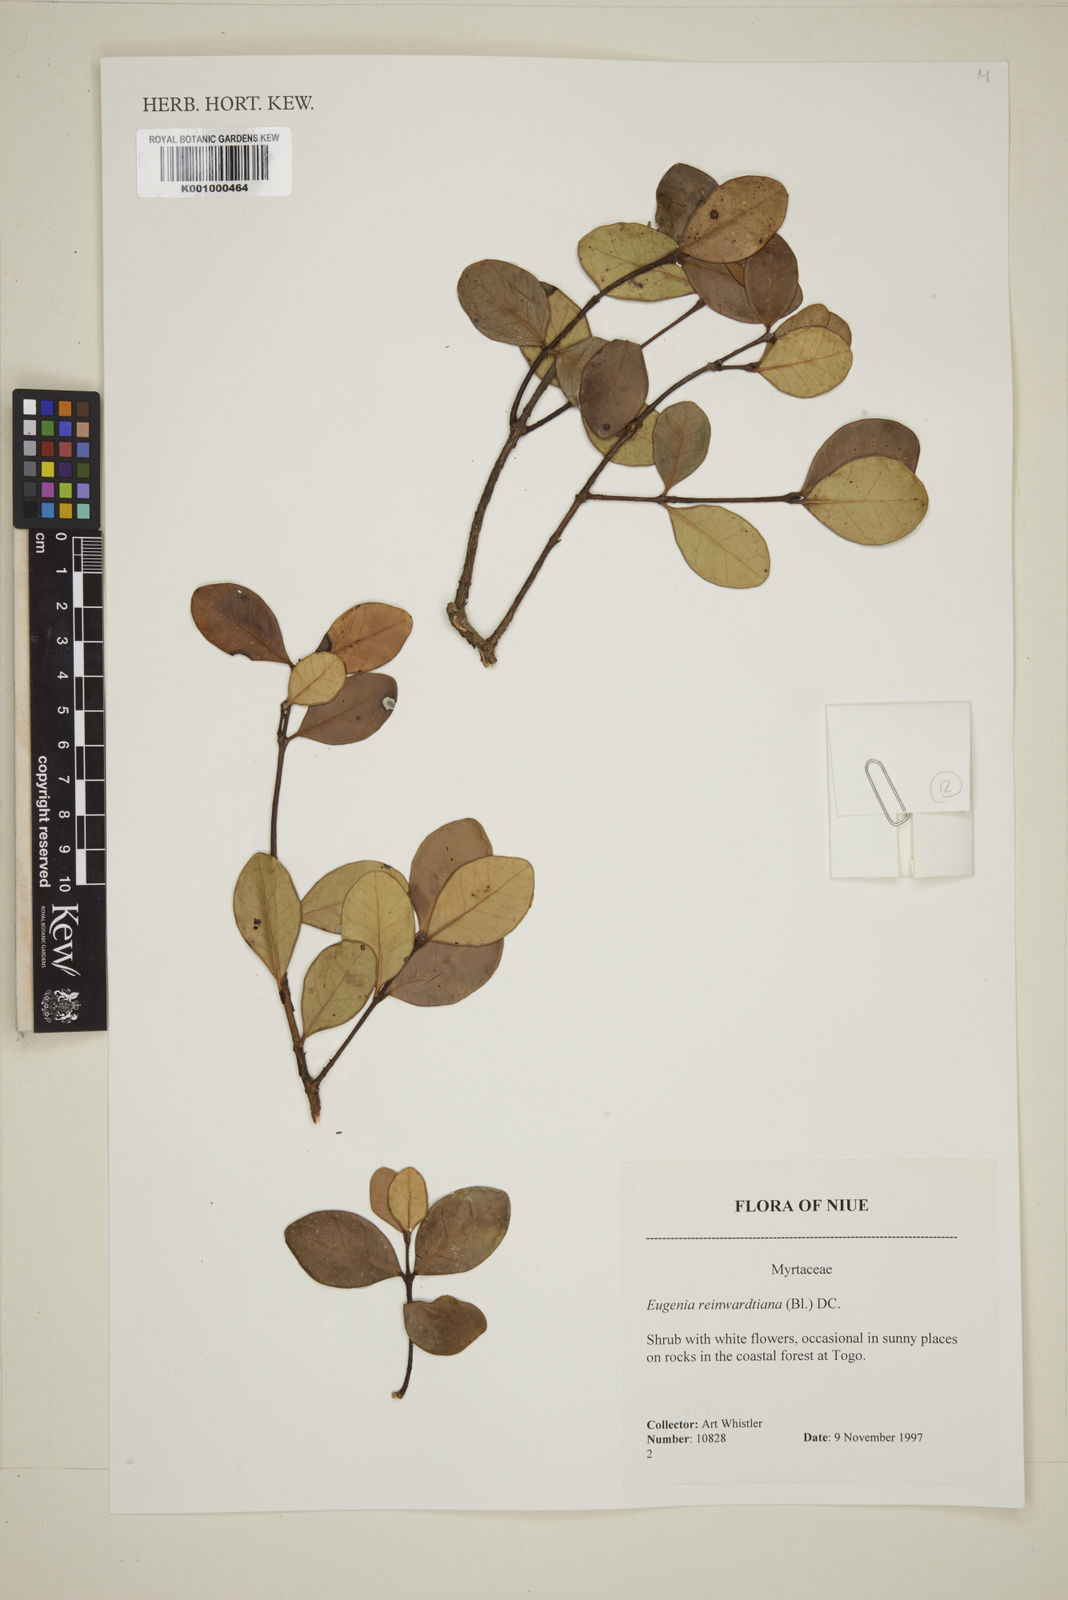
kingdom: Plantae
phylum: Tracheophyta
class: Magnoliopsida
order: Myrtales
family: Myrtaceae
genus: Eugenia
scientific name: Eugenia reinwardtiana
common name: Cedar bay-cherry
